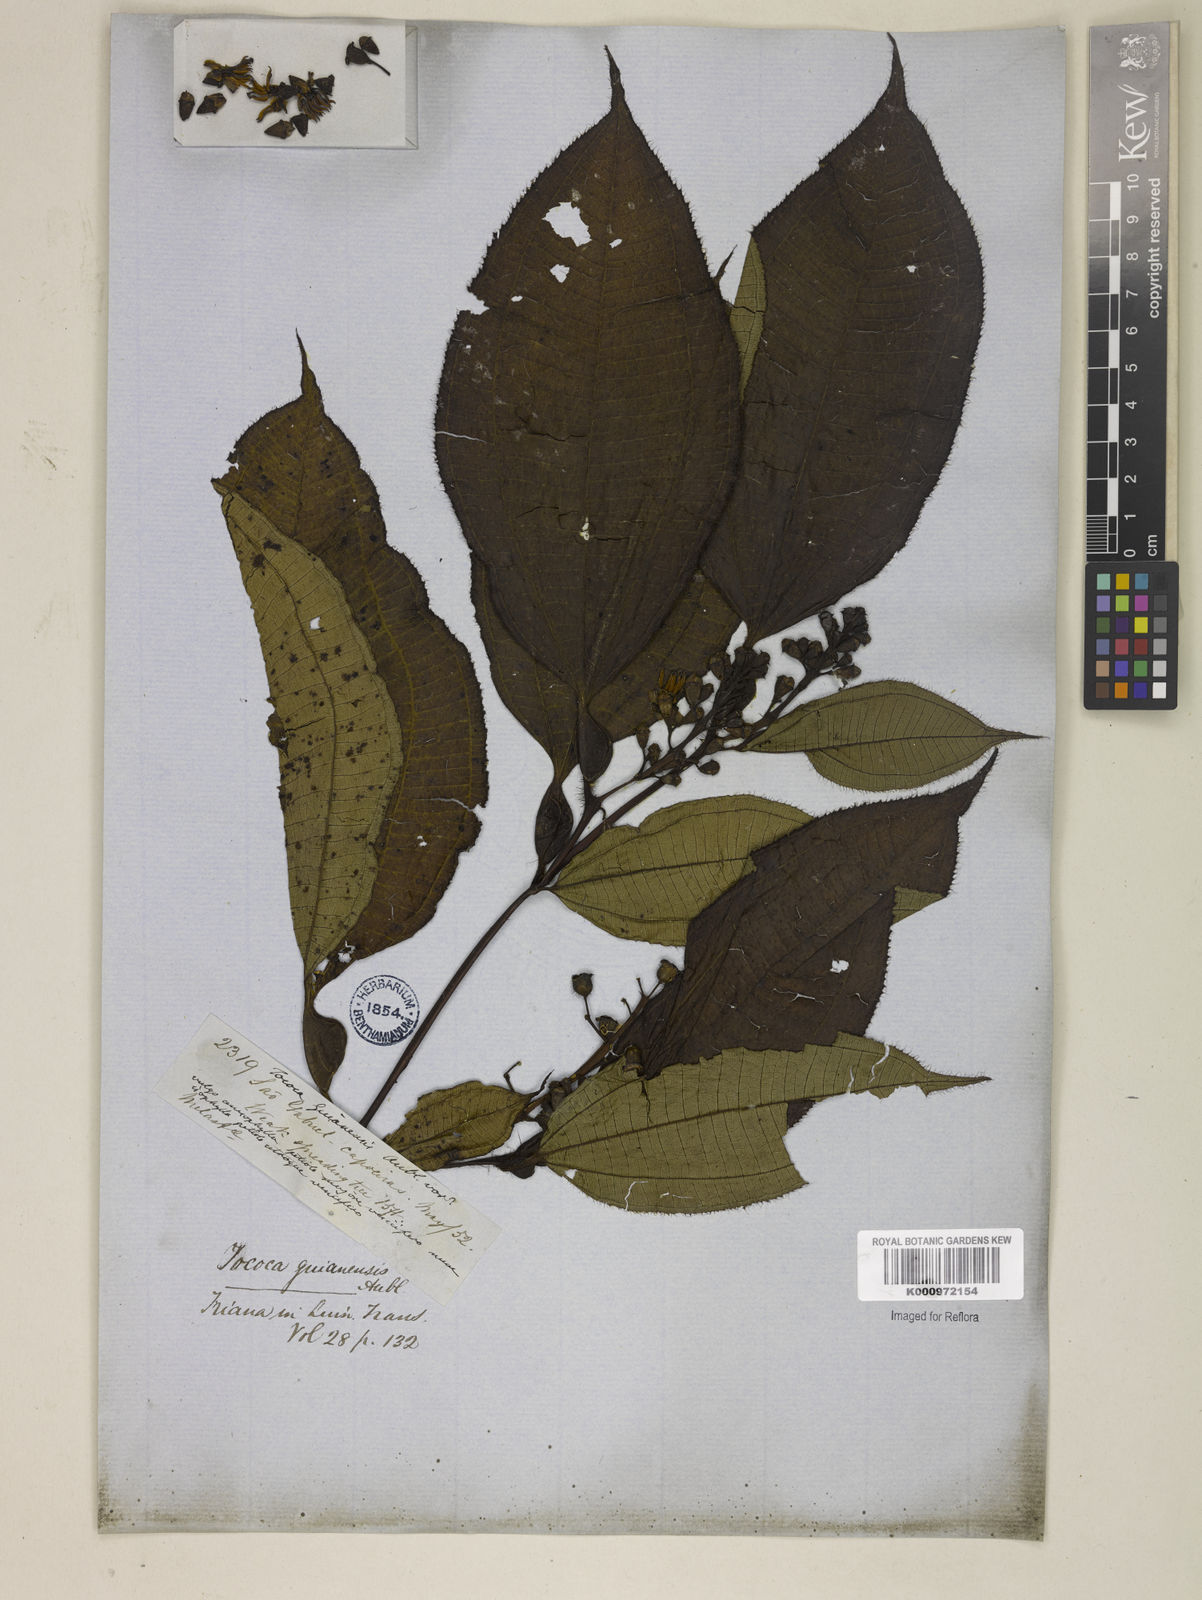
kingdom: Plantae
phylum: Tracheophyta
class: Magnoliopsida
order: Myrtales
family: Melastomataceae
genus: Miconia
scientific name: Miconia tococa
